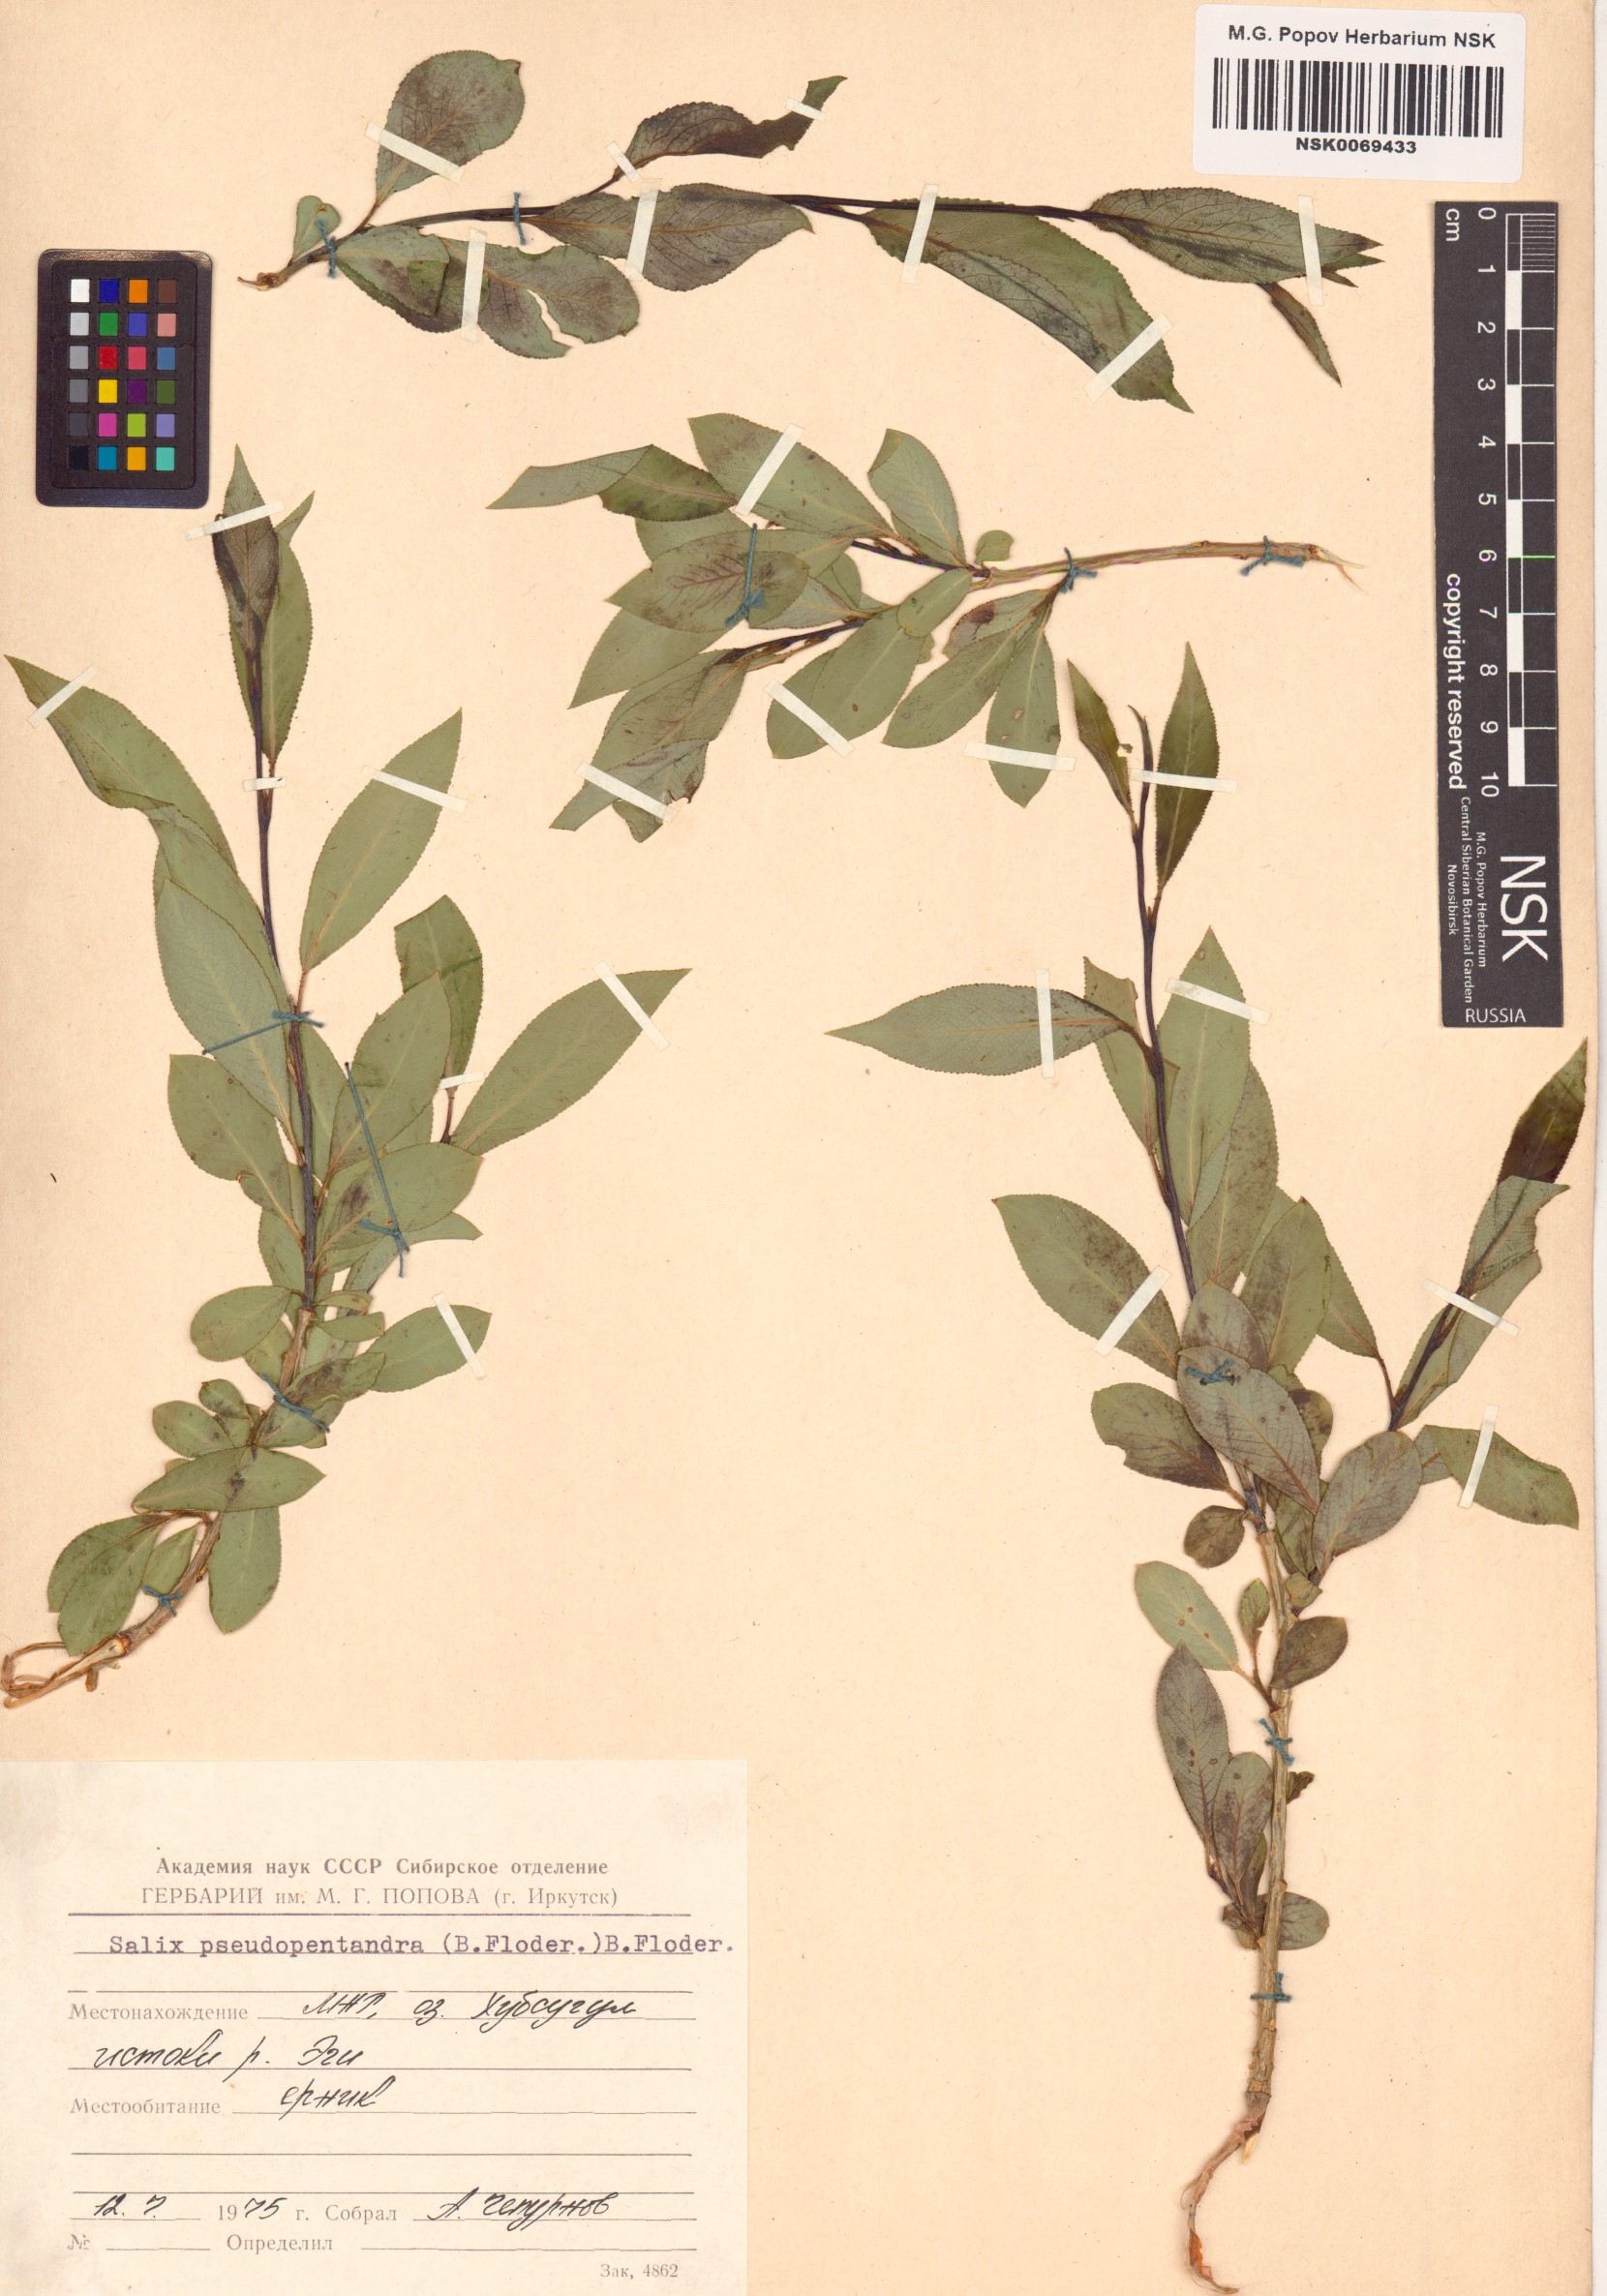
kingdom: Plantae
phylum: Tracheophyta
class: Magnoliopsida
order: Malpighiales
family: Salicaceae
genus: Salix
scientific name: Salix pseudopentandra
